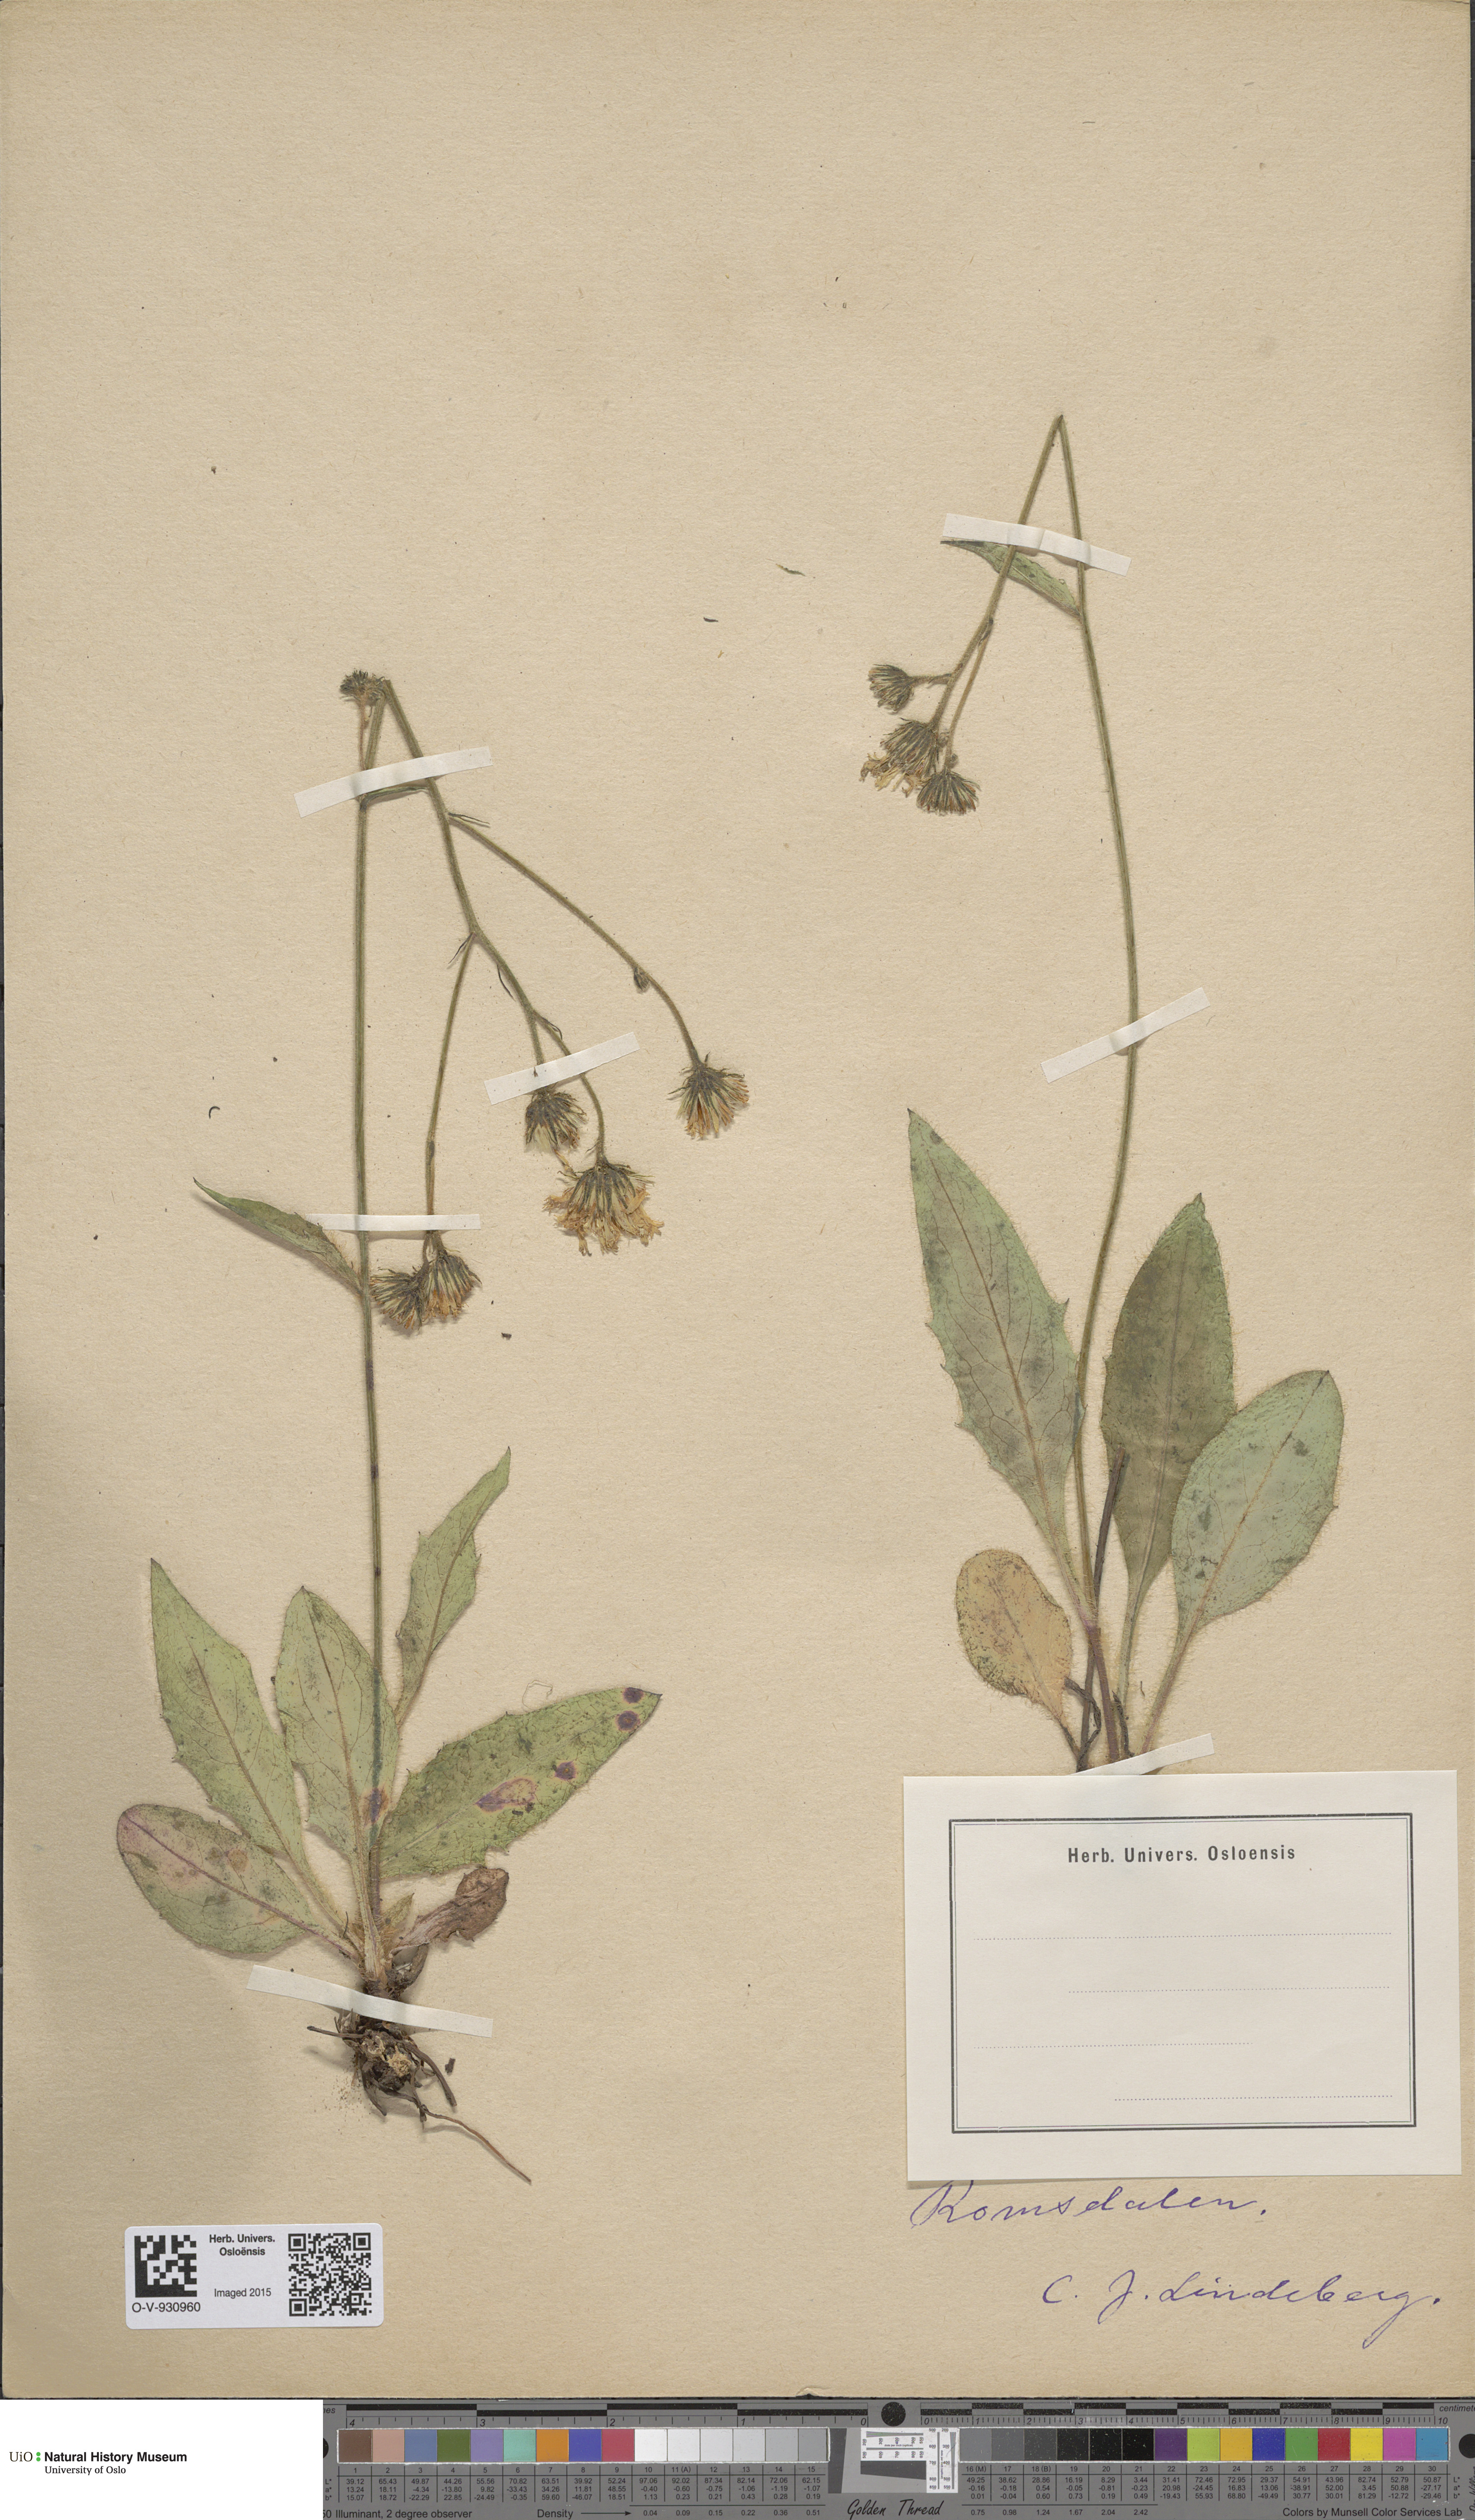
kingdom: Plantae
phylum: Tracheophyta
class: Magnoliopsida
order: Asterales
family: Asteraceae
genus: Hieracium
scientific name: Hieracium saxifragum
